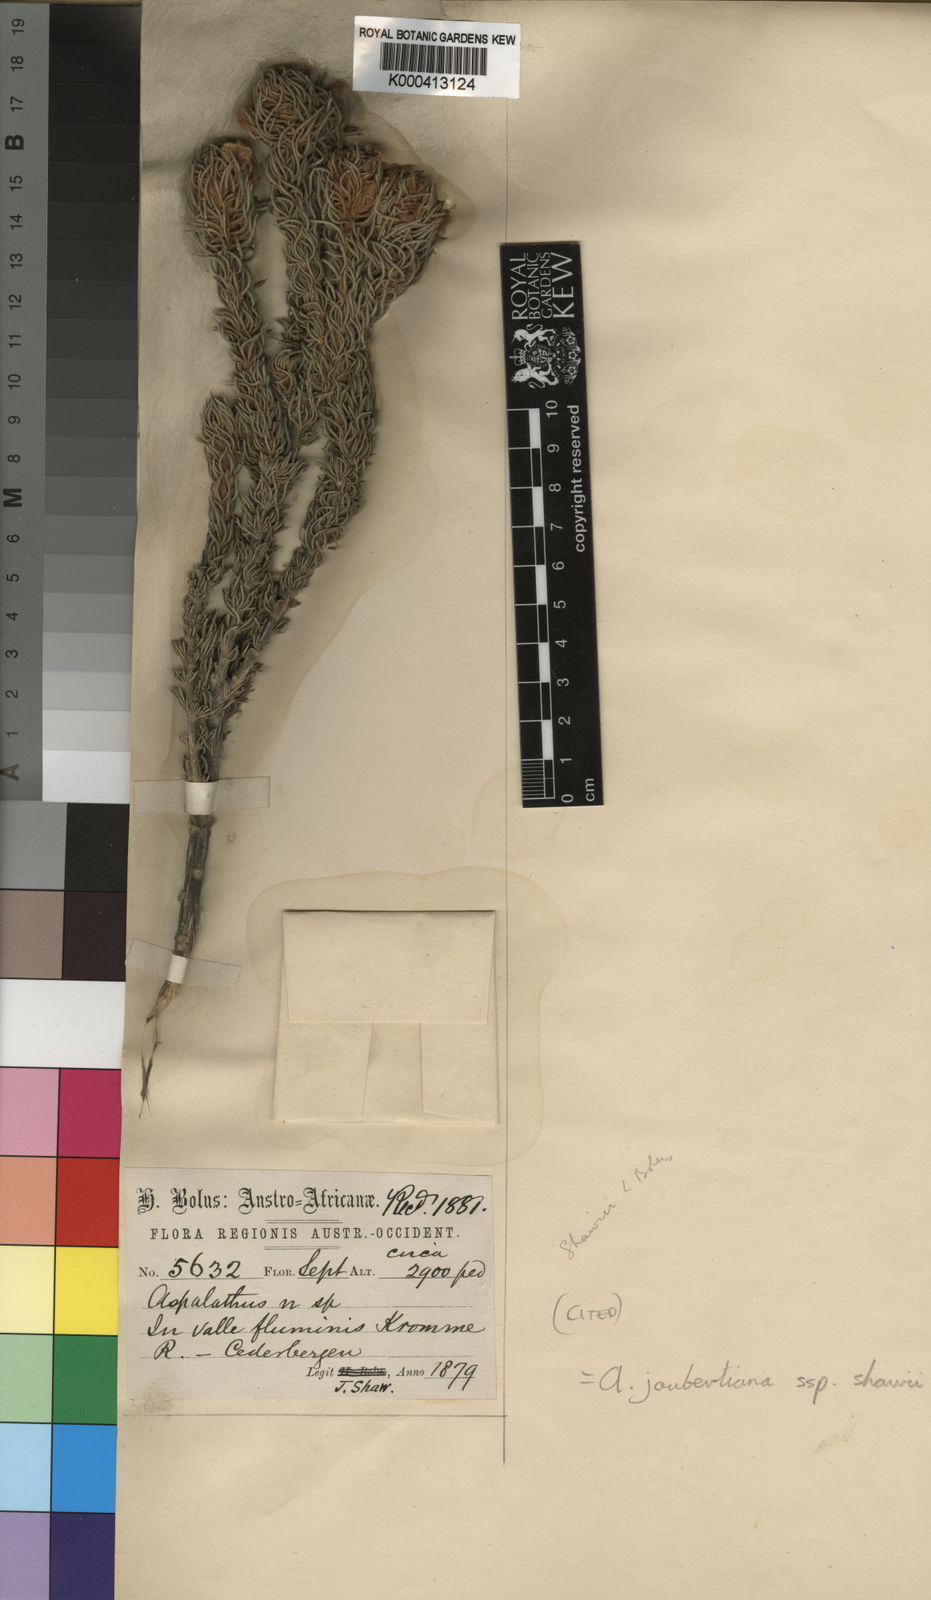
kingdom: Plantae
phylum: Tracheophyta
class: Magnoliopsida
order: Fabales
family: Fabaceae
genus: Aspalathus
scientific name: Aspalathus joubertiana
